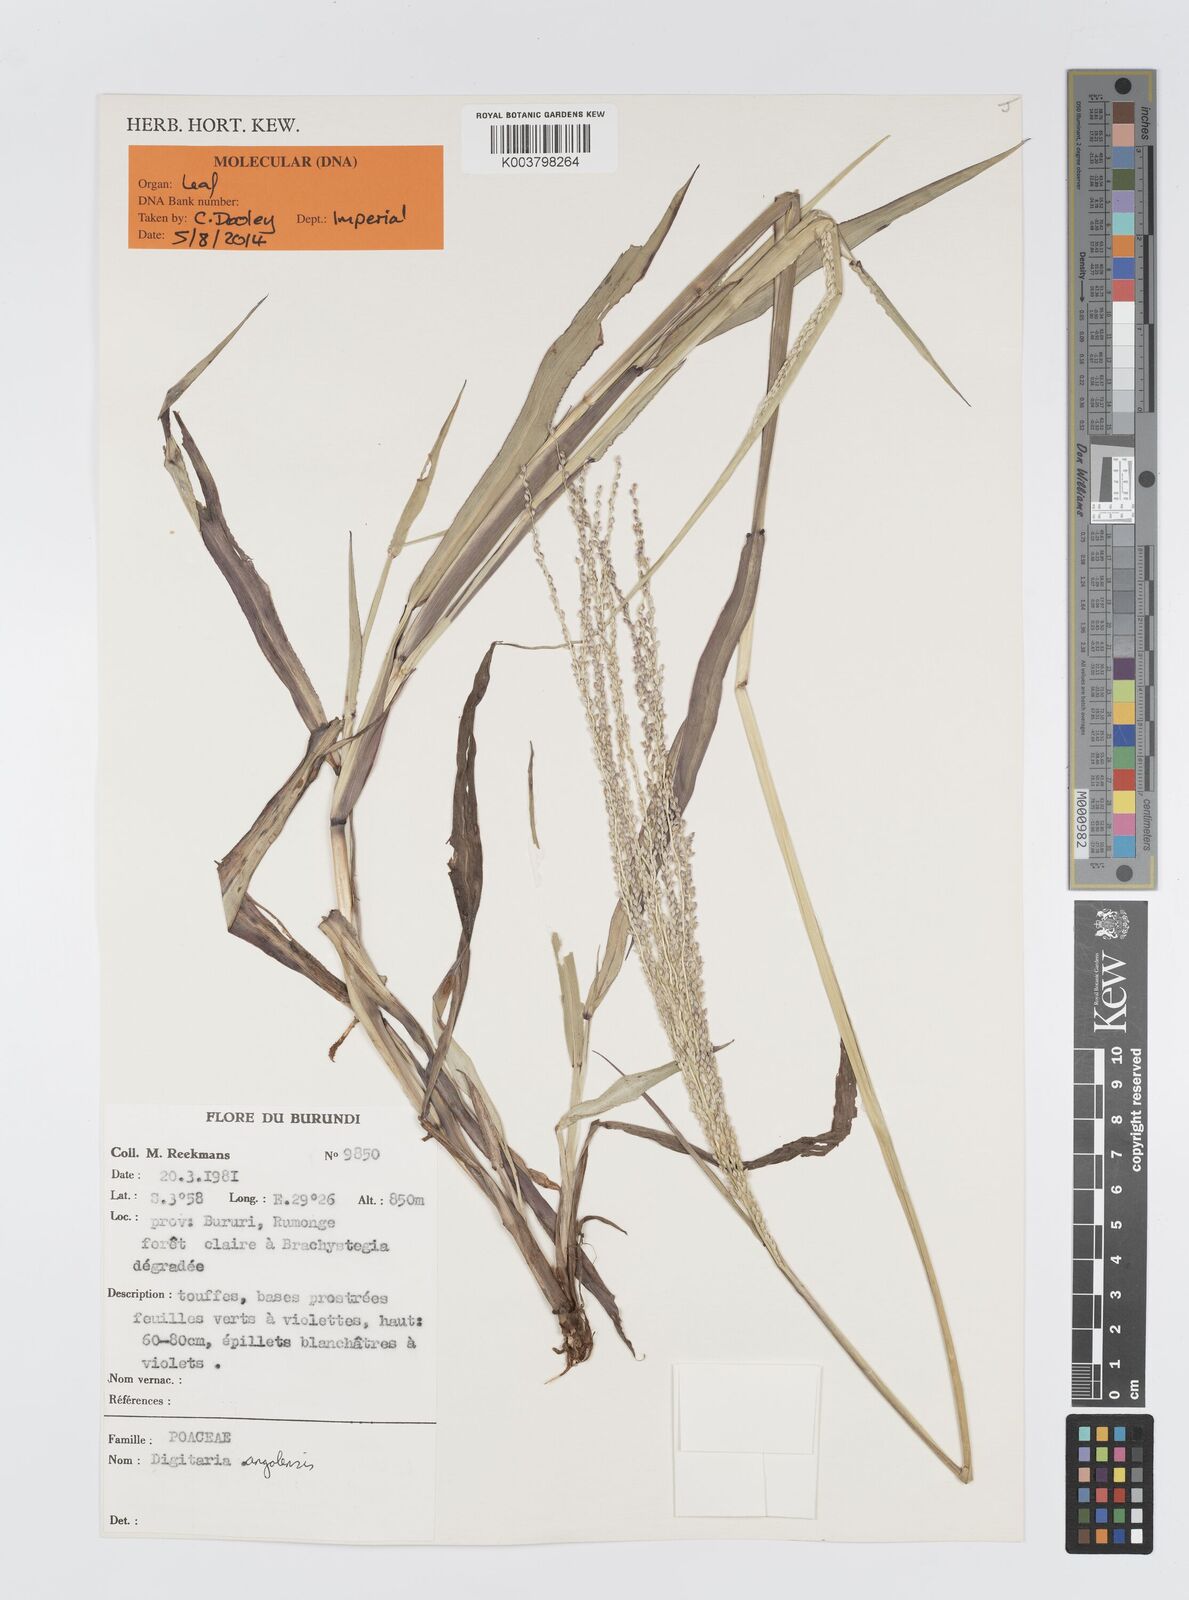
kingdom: Plantae
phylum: Tracheophyta
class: Liliopsida
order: Poales
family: Poaceae
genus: Digitaria
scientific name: Digitaria angolensis
